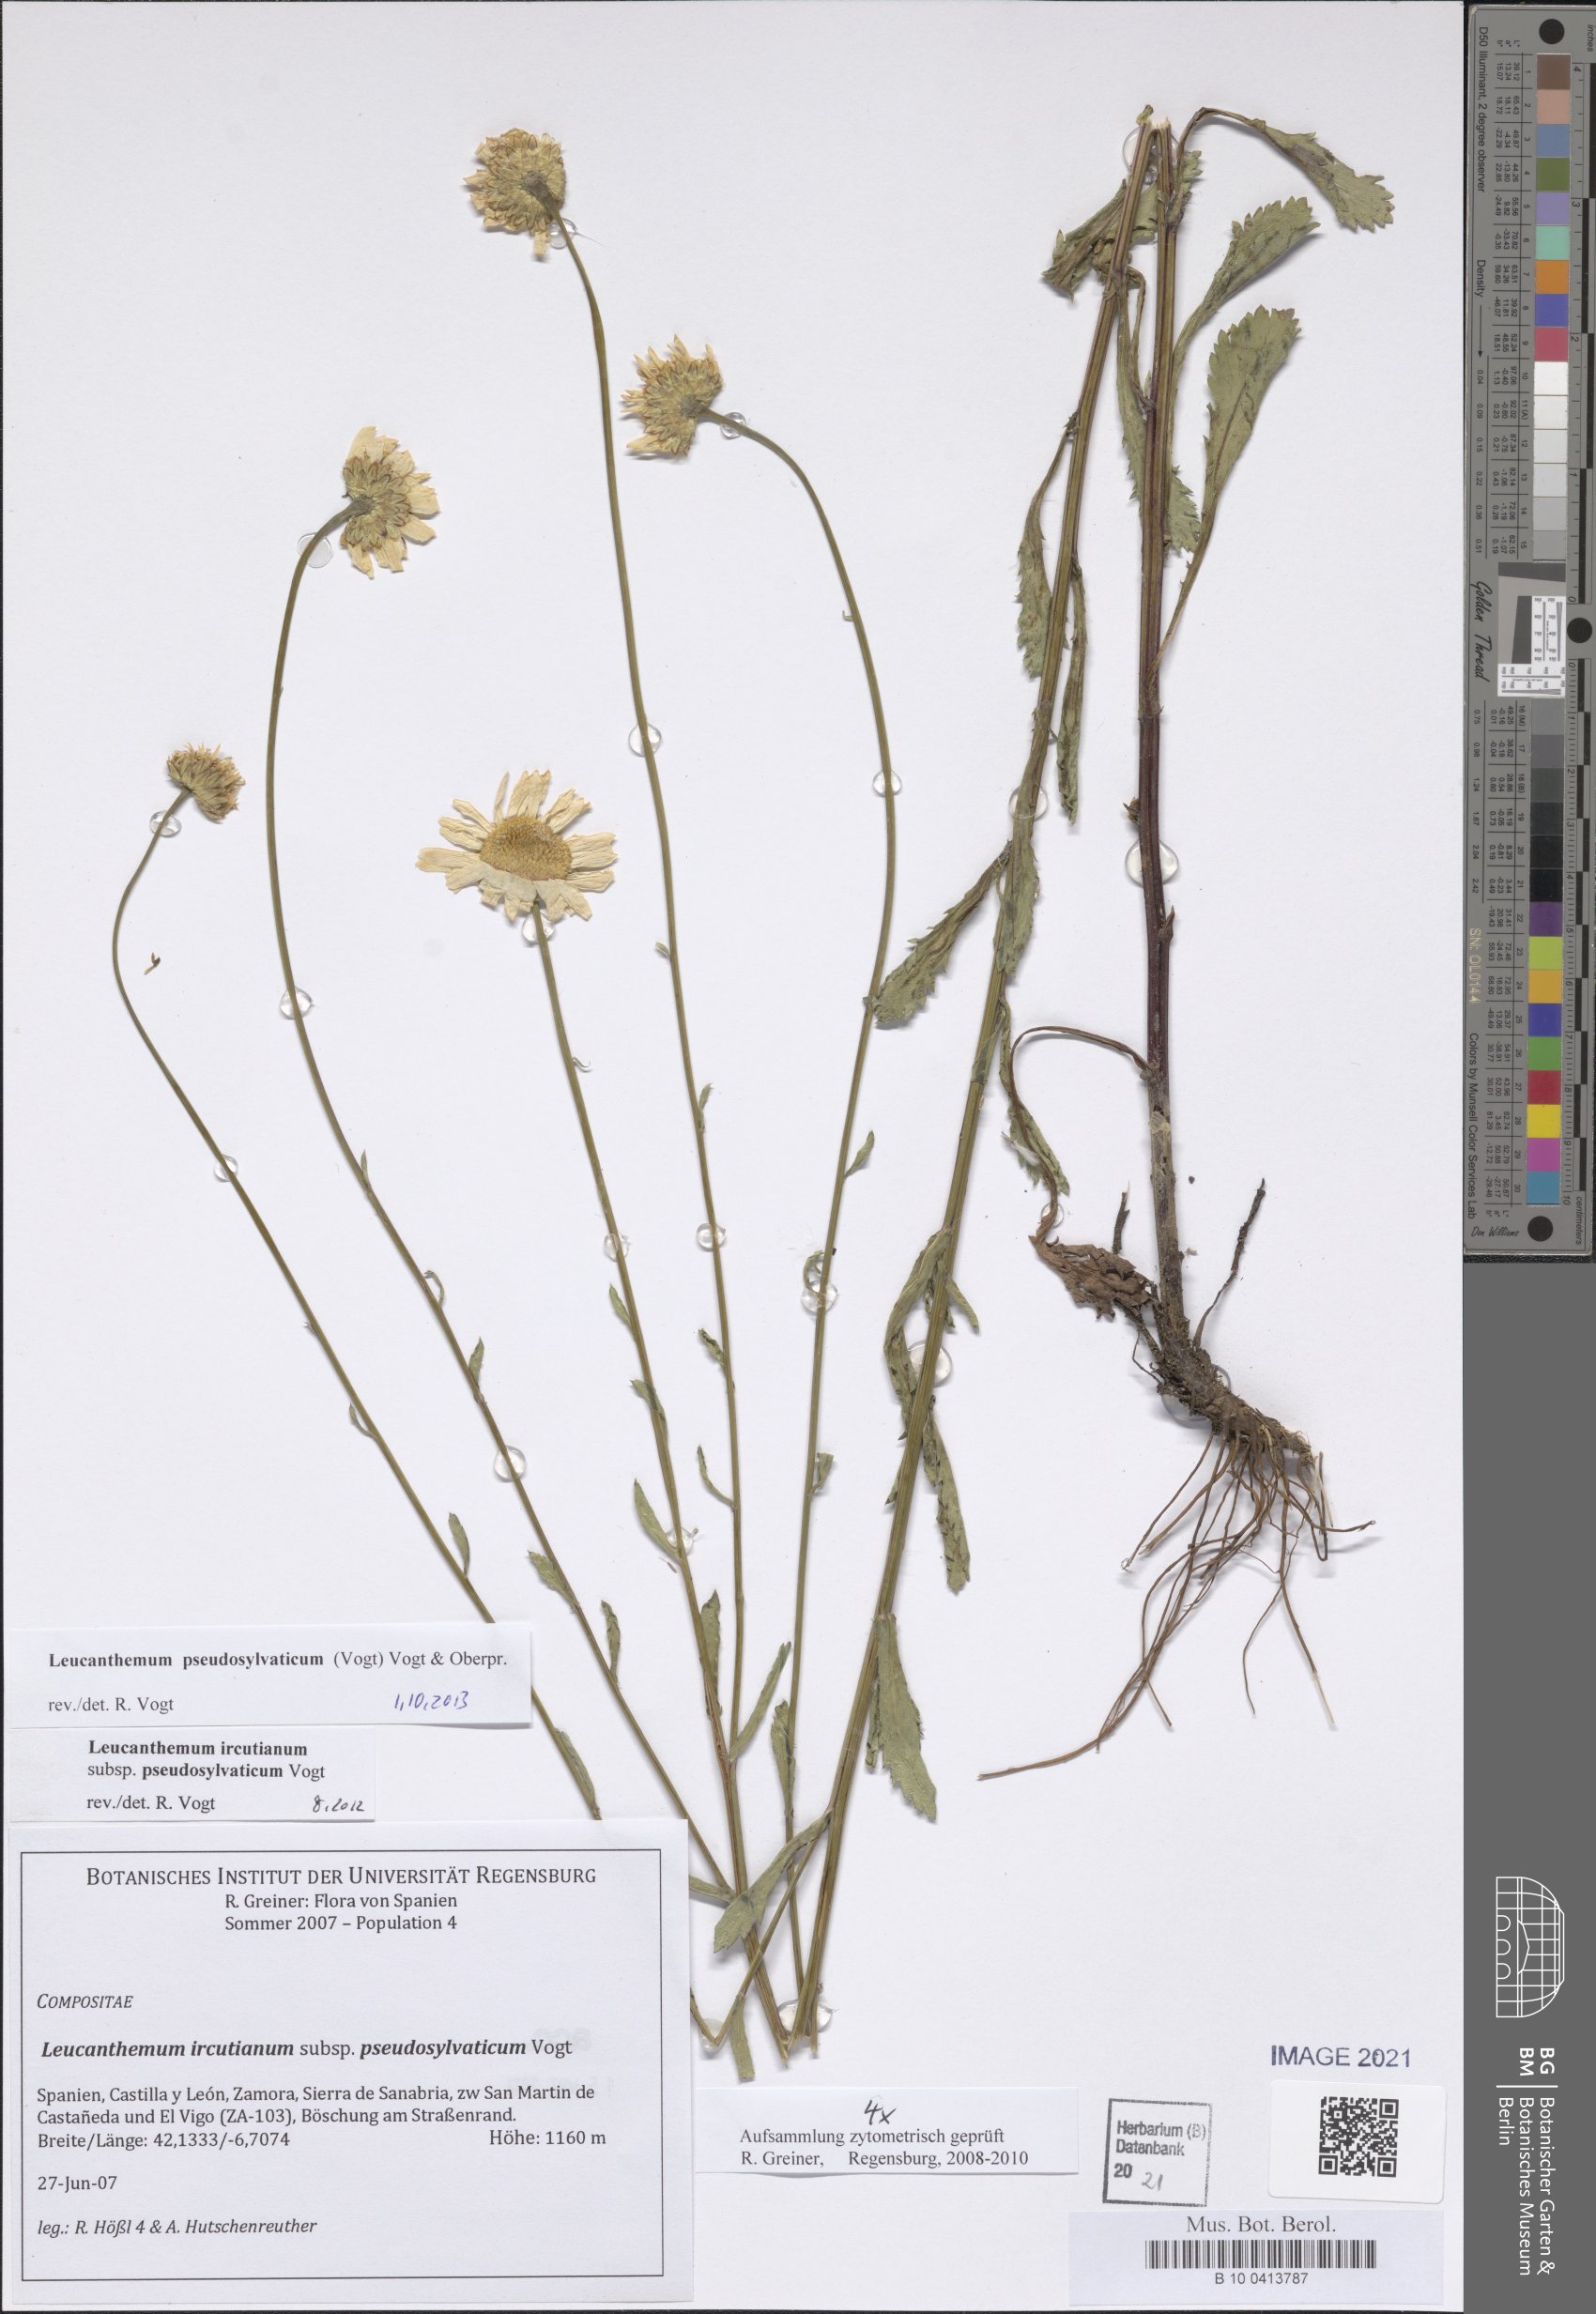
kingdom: Plantae
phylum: Tracheophyta
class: Magnoliopsida
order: Asterales
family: Asteraceae
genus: Leucanthemum
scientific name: Leucanthemum pseudosylvaticum
